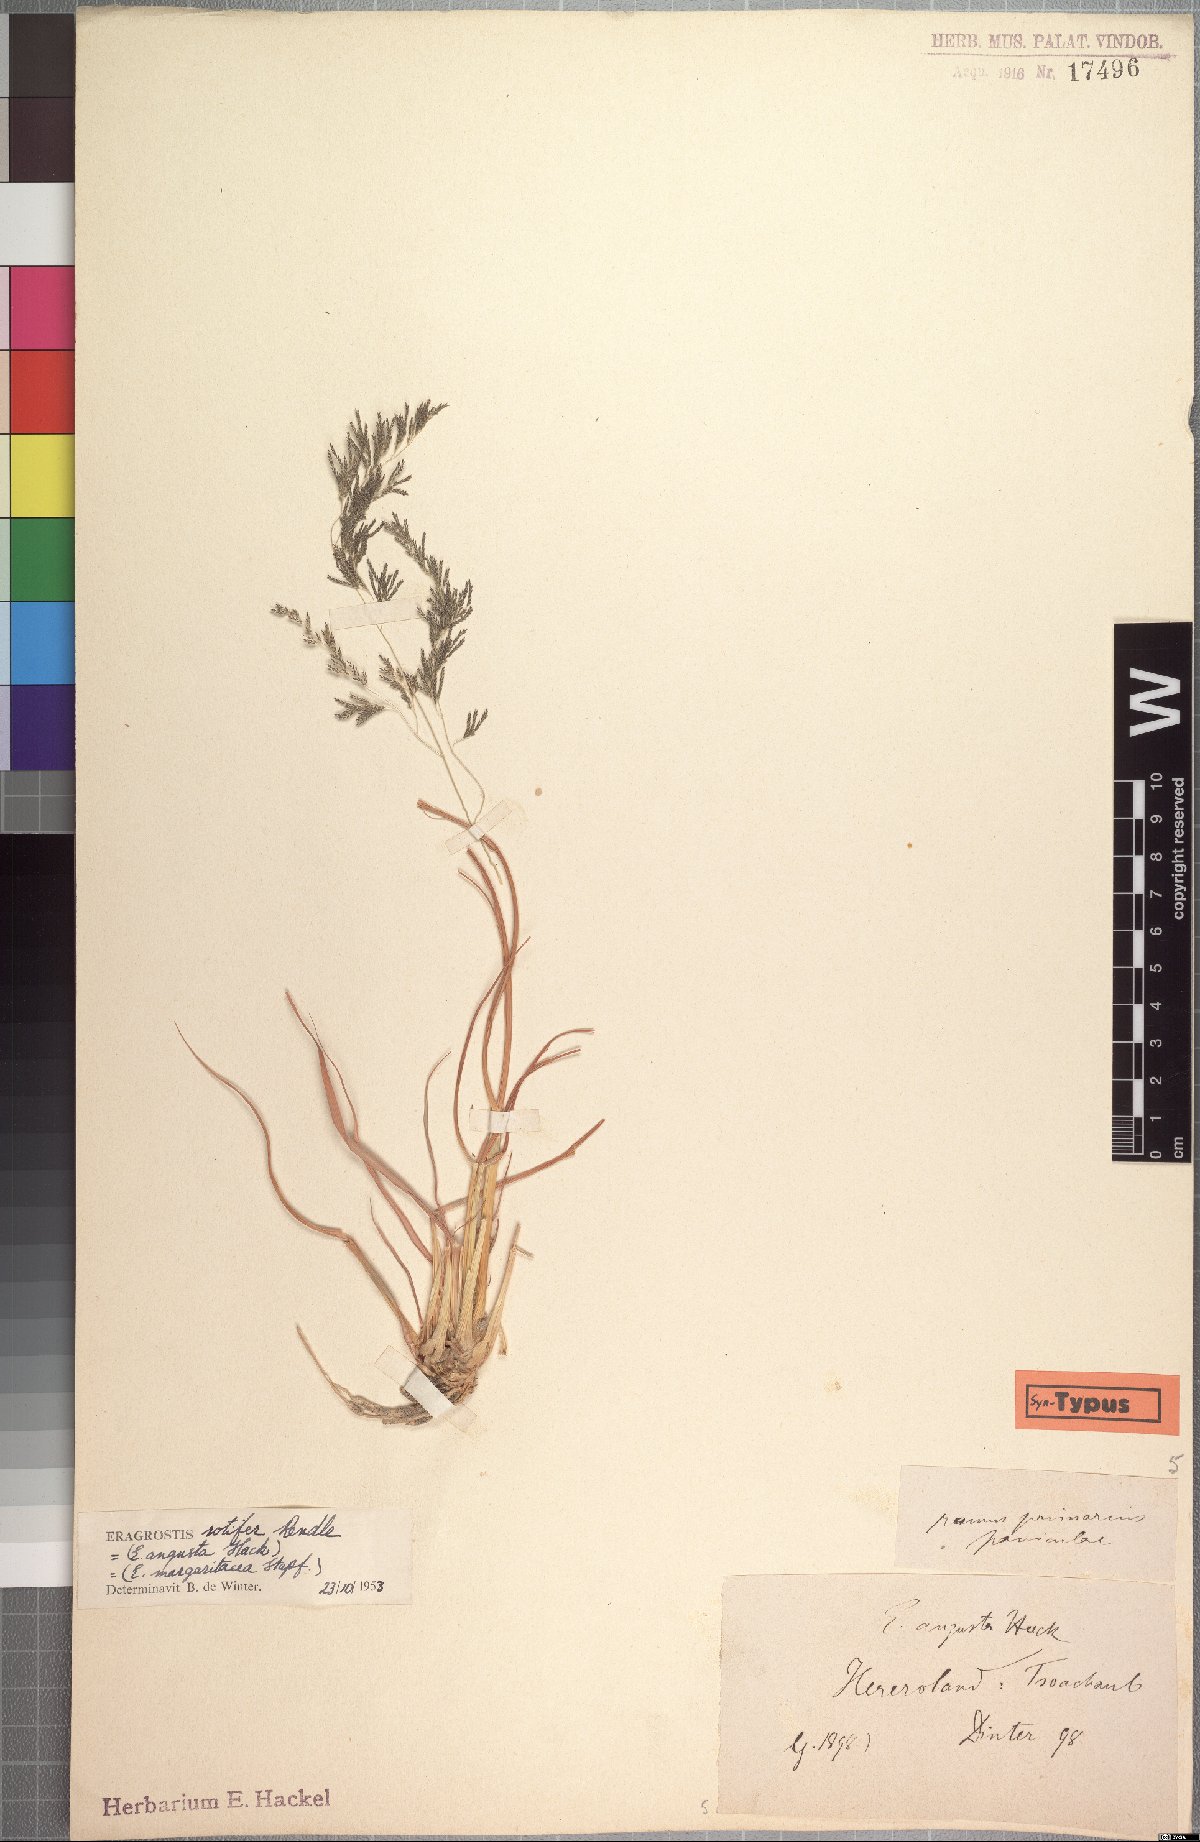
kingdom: Plantae
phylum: Tracheophyta
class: Liliopsida
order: Poales
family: Poaceae
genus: Eragrostis
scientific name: Eragrostis rotifer
